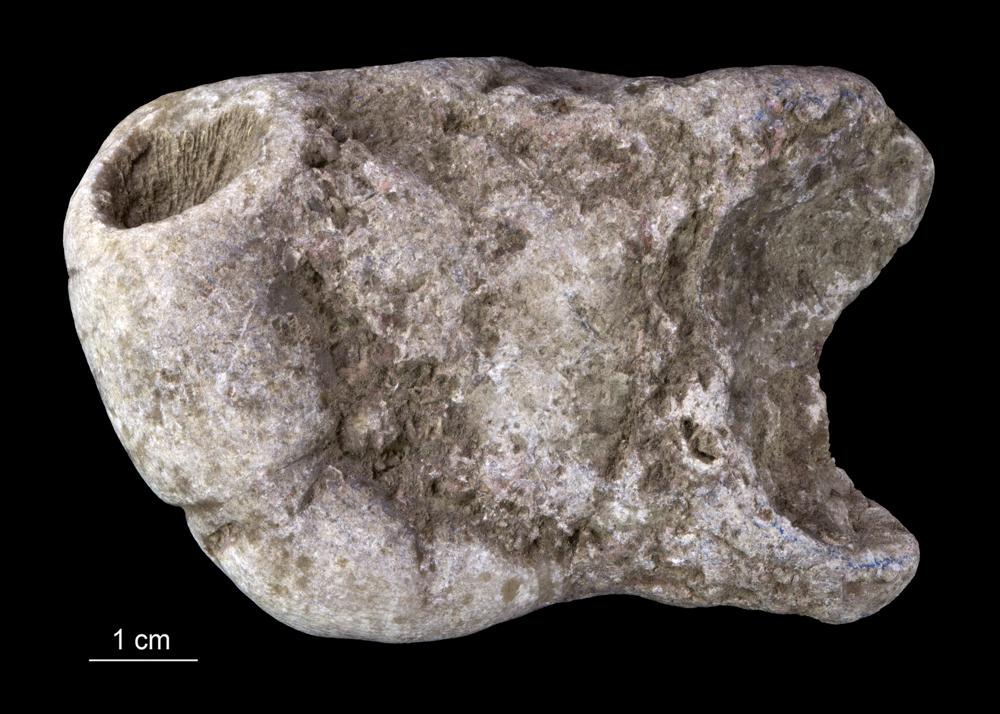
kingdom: Animalia
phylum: Cnidaria
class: Anthozoa
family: Lykophyllidae
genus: Phaulactis
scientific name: Phaulactis
